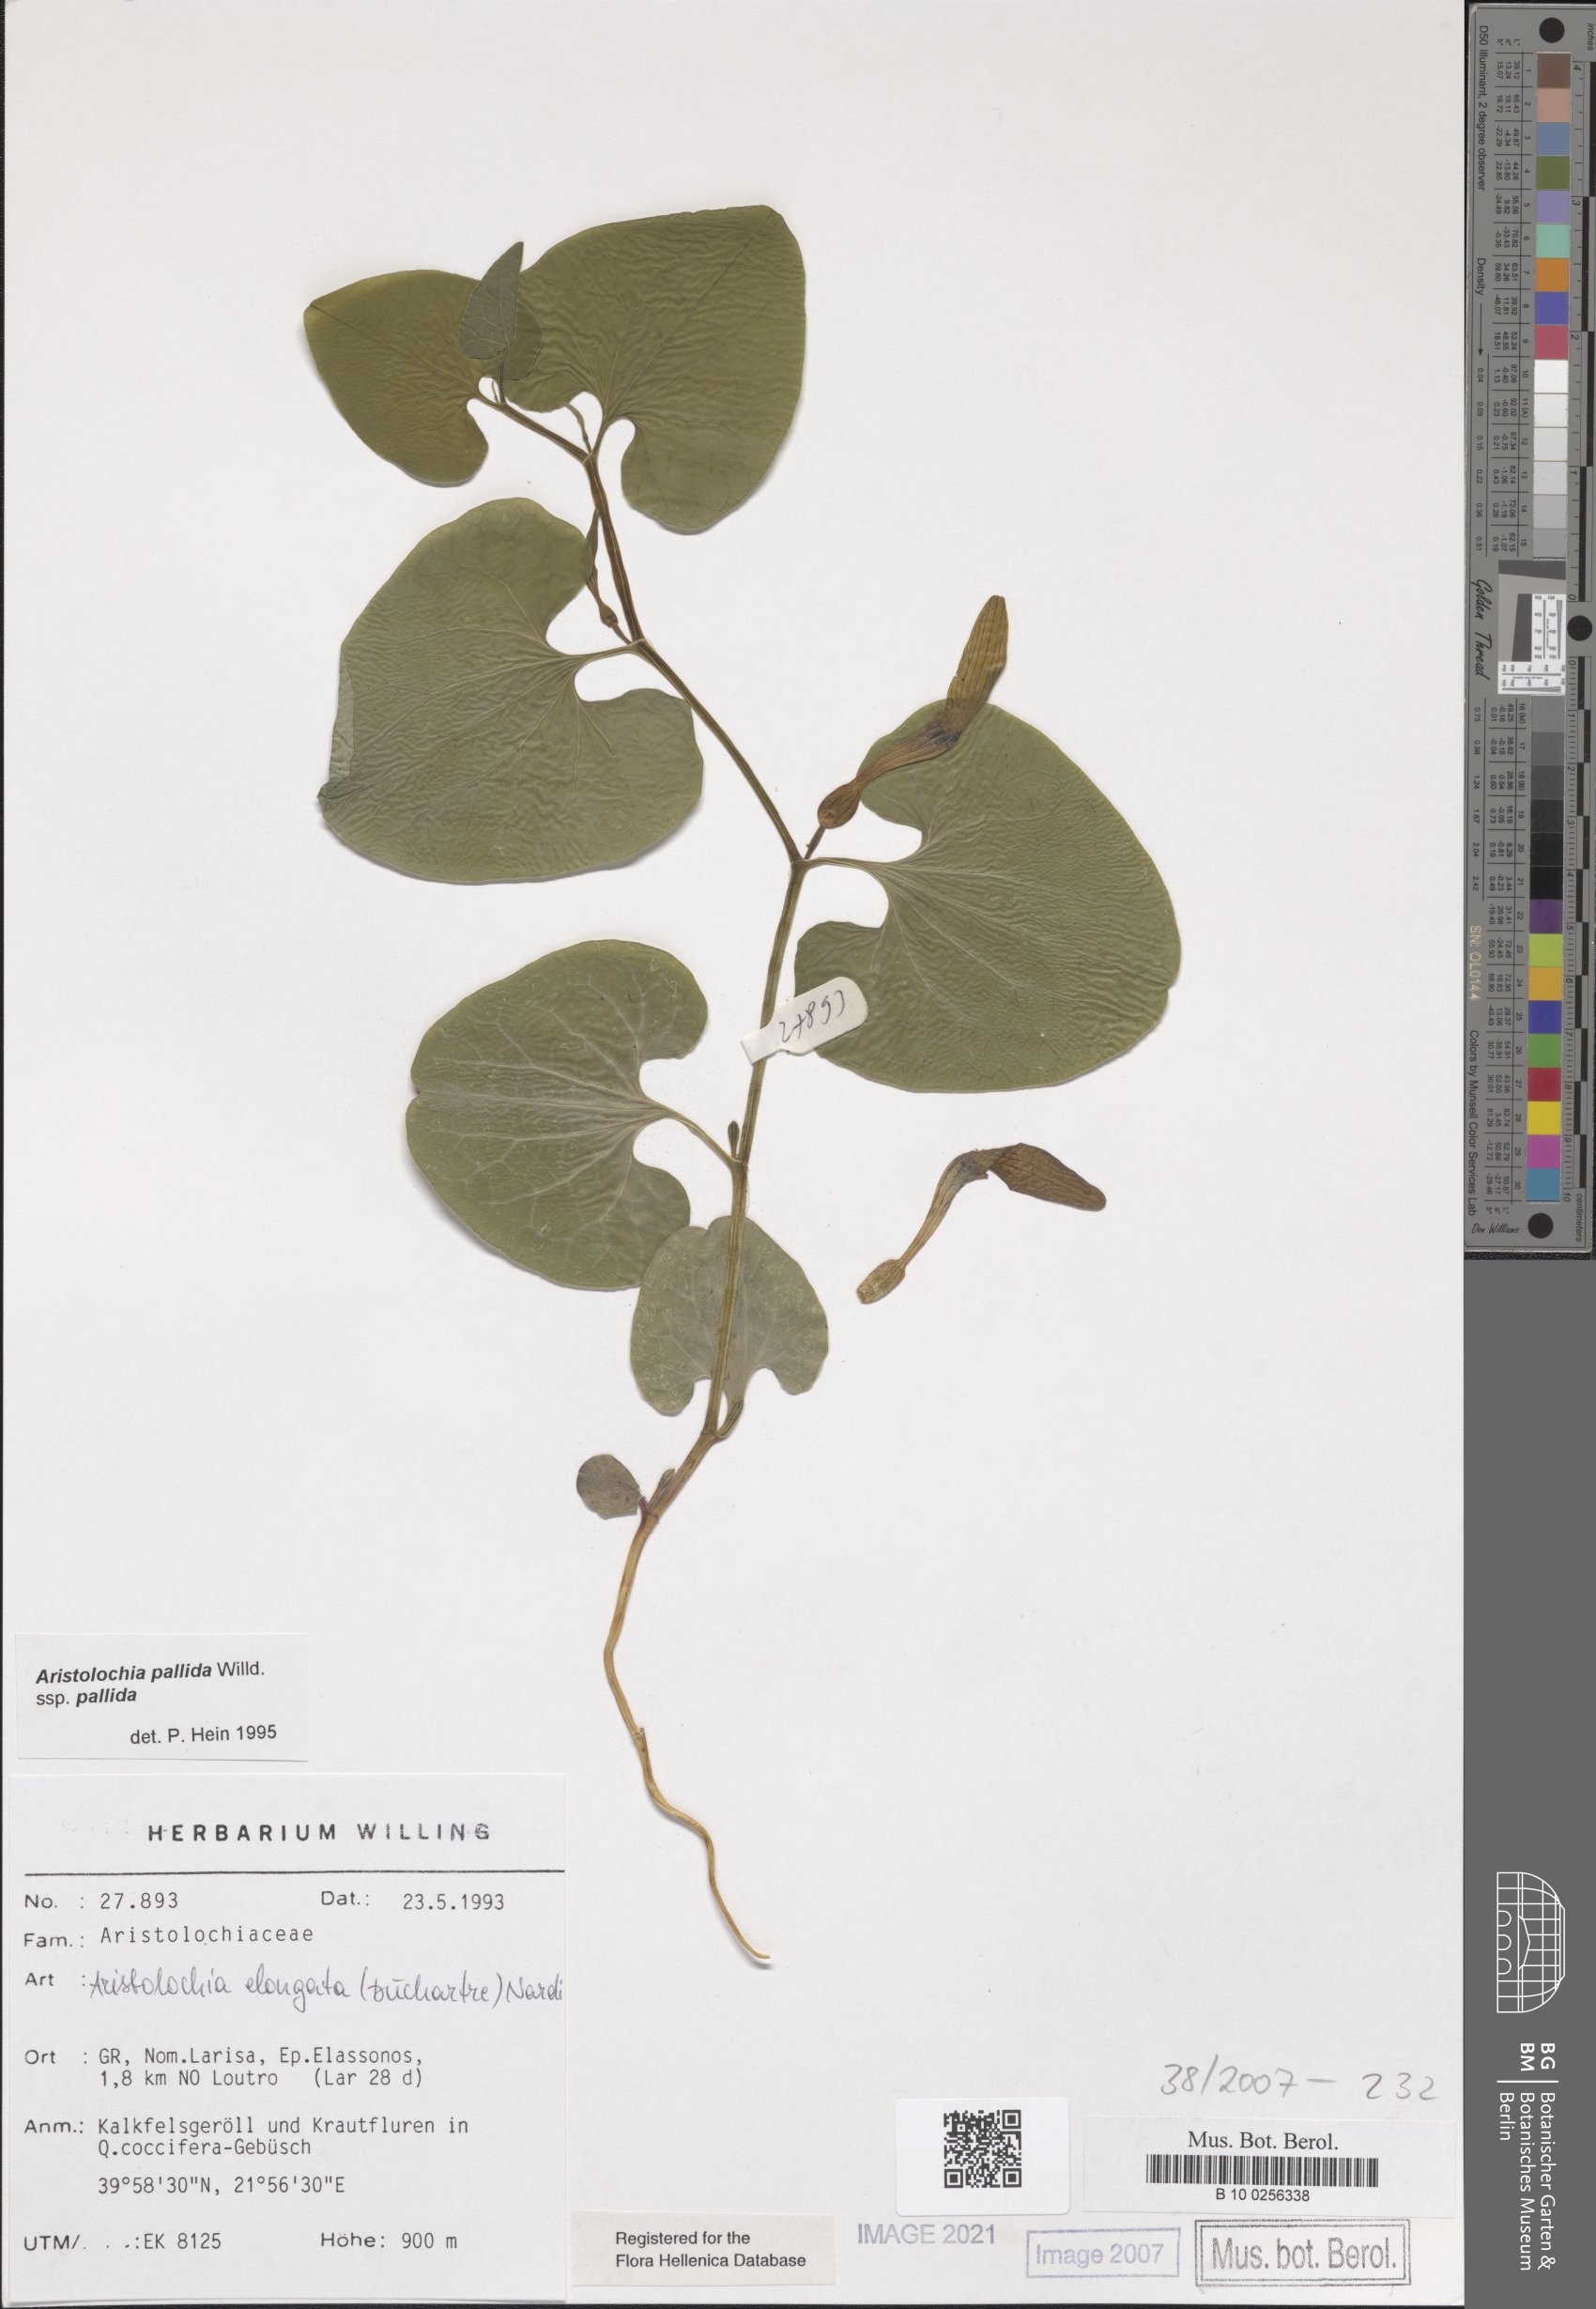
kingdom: Plantae
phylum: Tracheophyta
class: Magnoliopsida
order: Piperales
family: Aristolochiaceae
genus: Aristolochia
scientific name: Aristolochia nardiana
